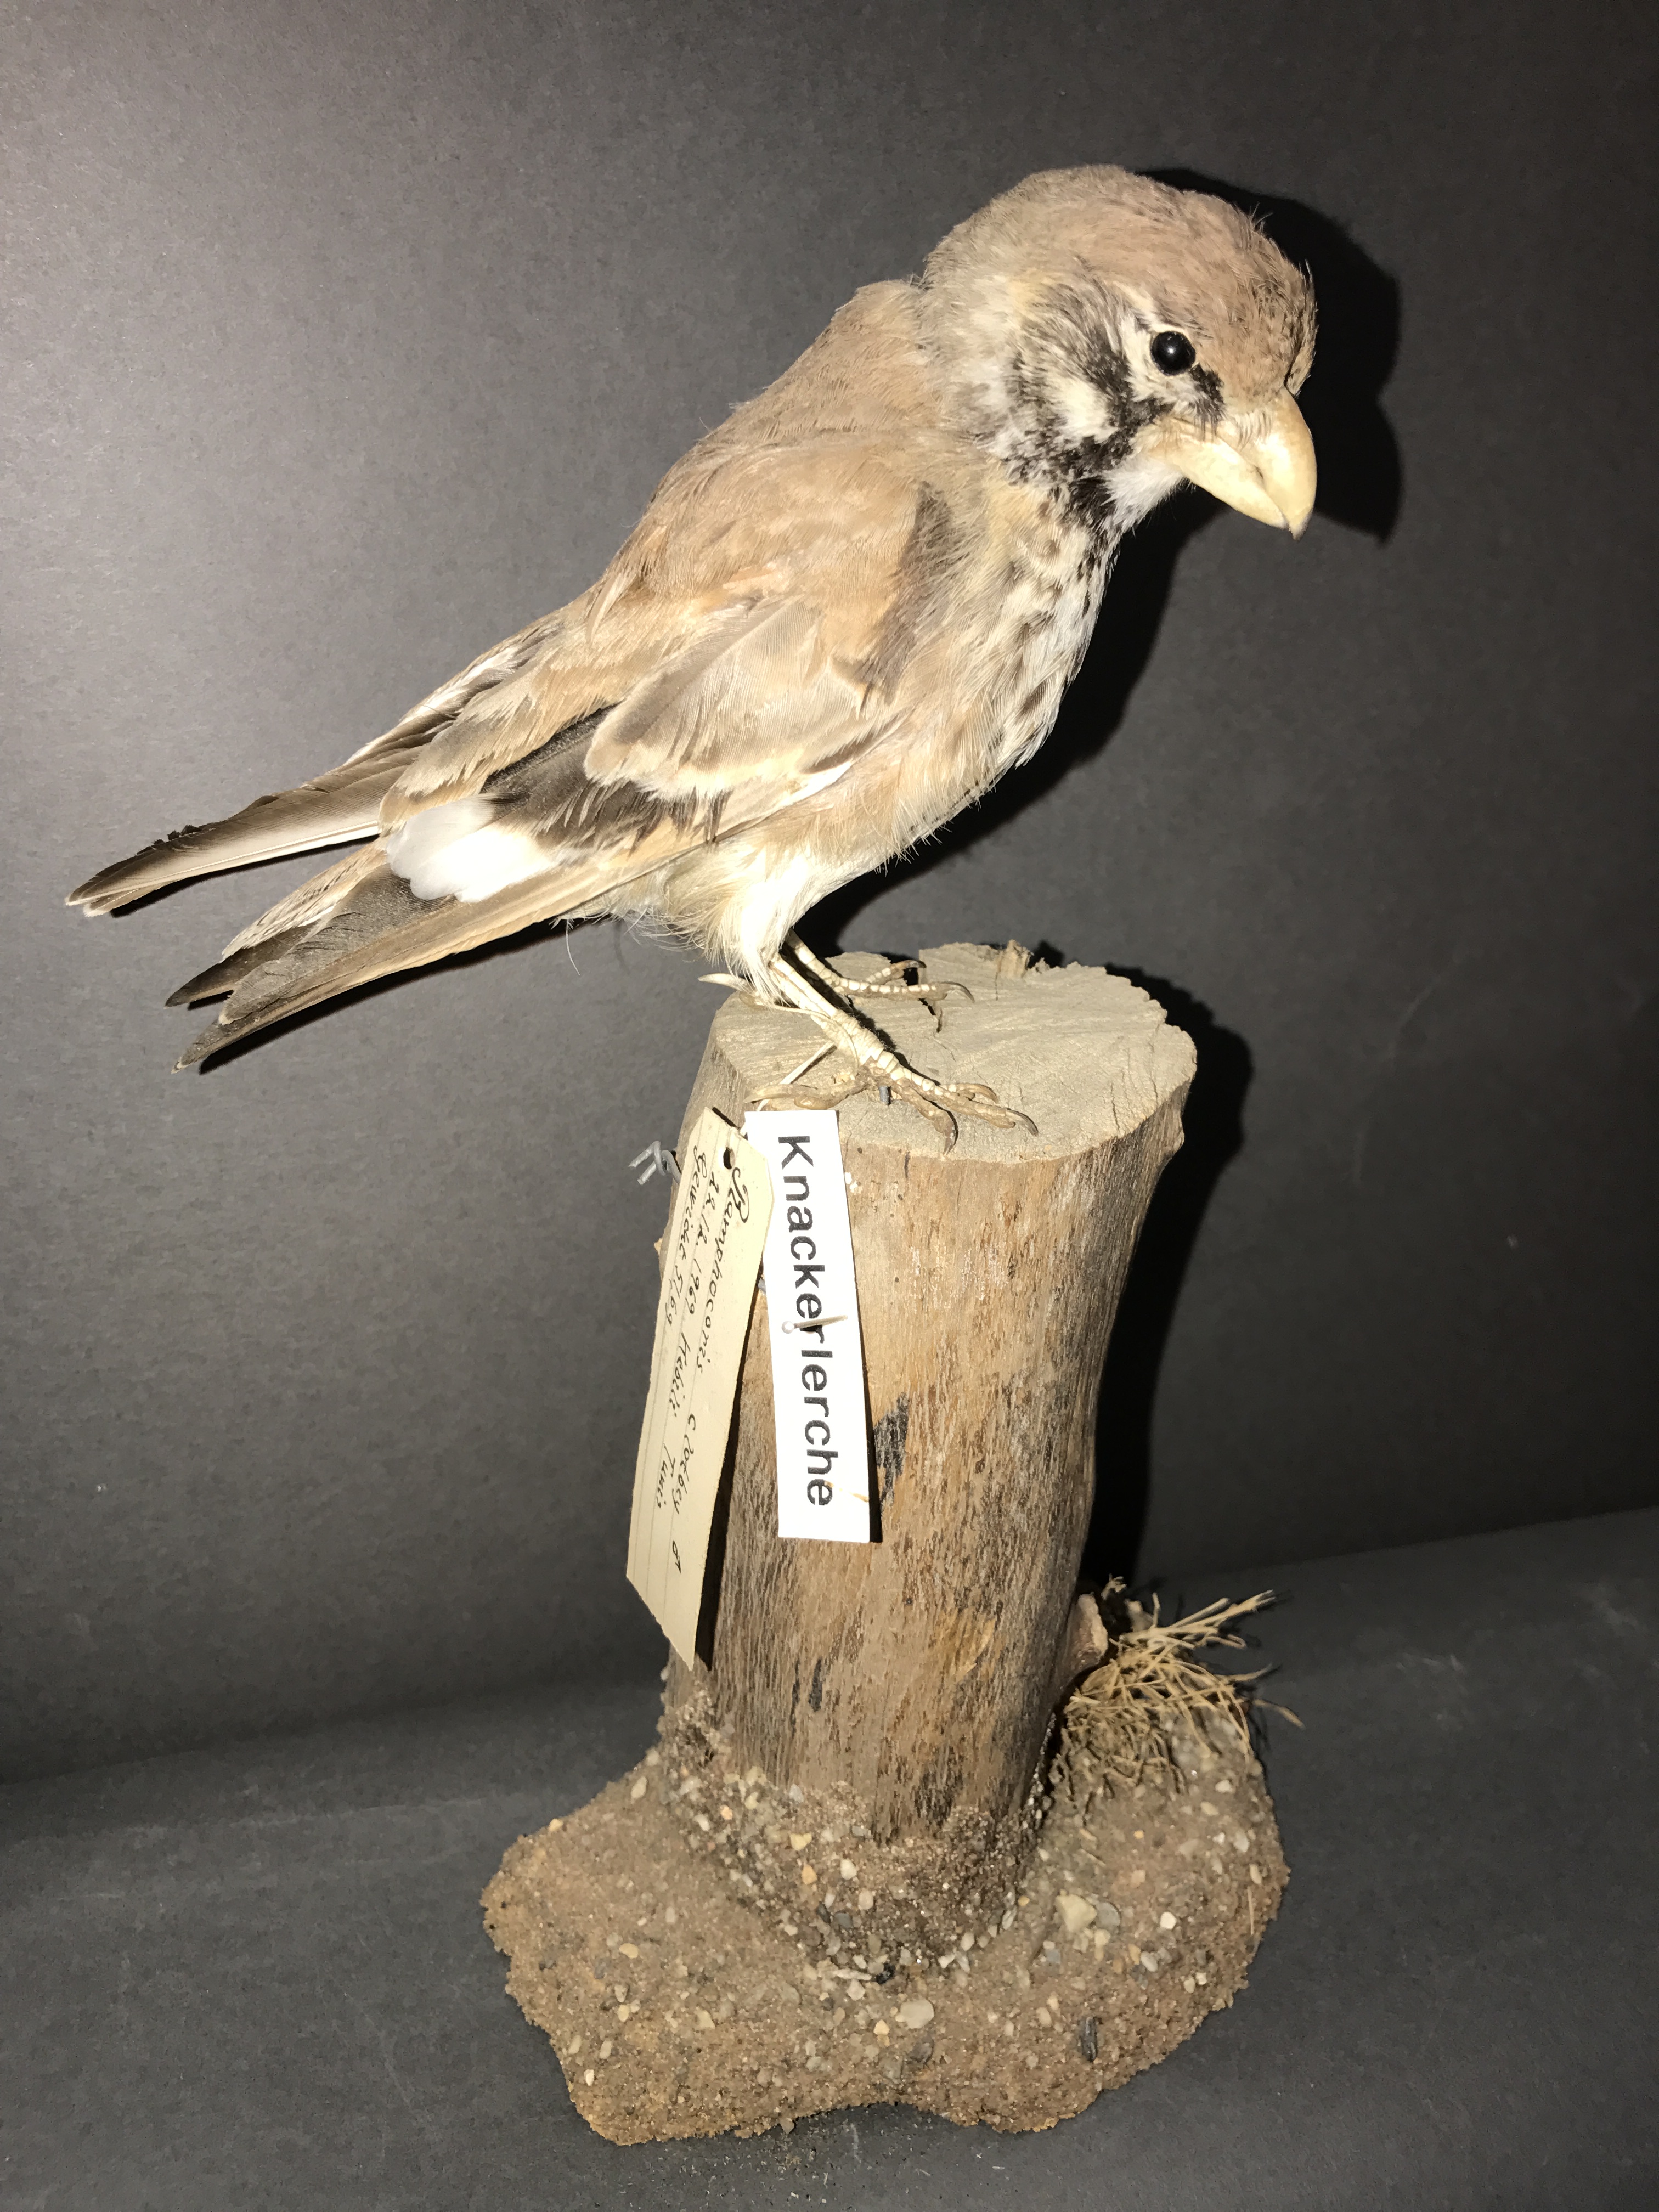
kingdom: Animalia
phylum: Chordata
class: Aves
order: Passeriformes
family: Alaudidae
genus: Ramphocoris
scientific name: Ramphocoris clotbey
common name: Thick-billed lark
